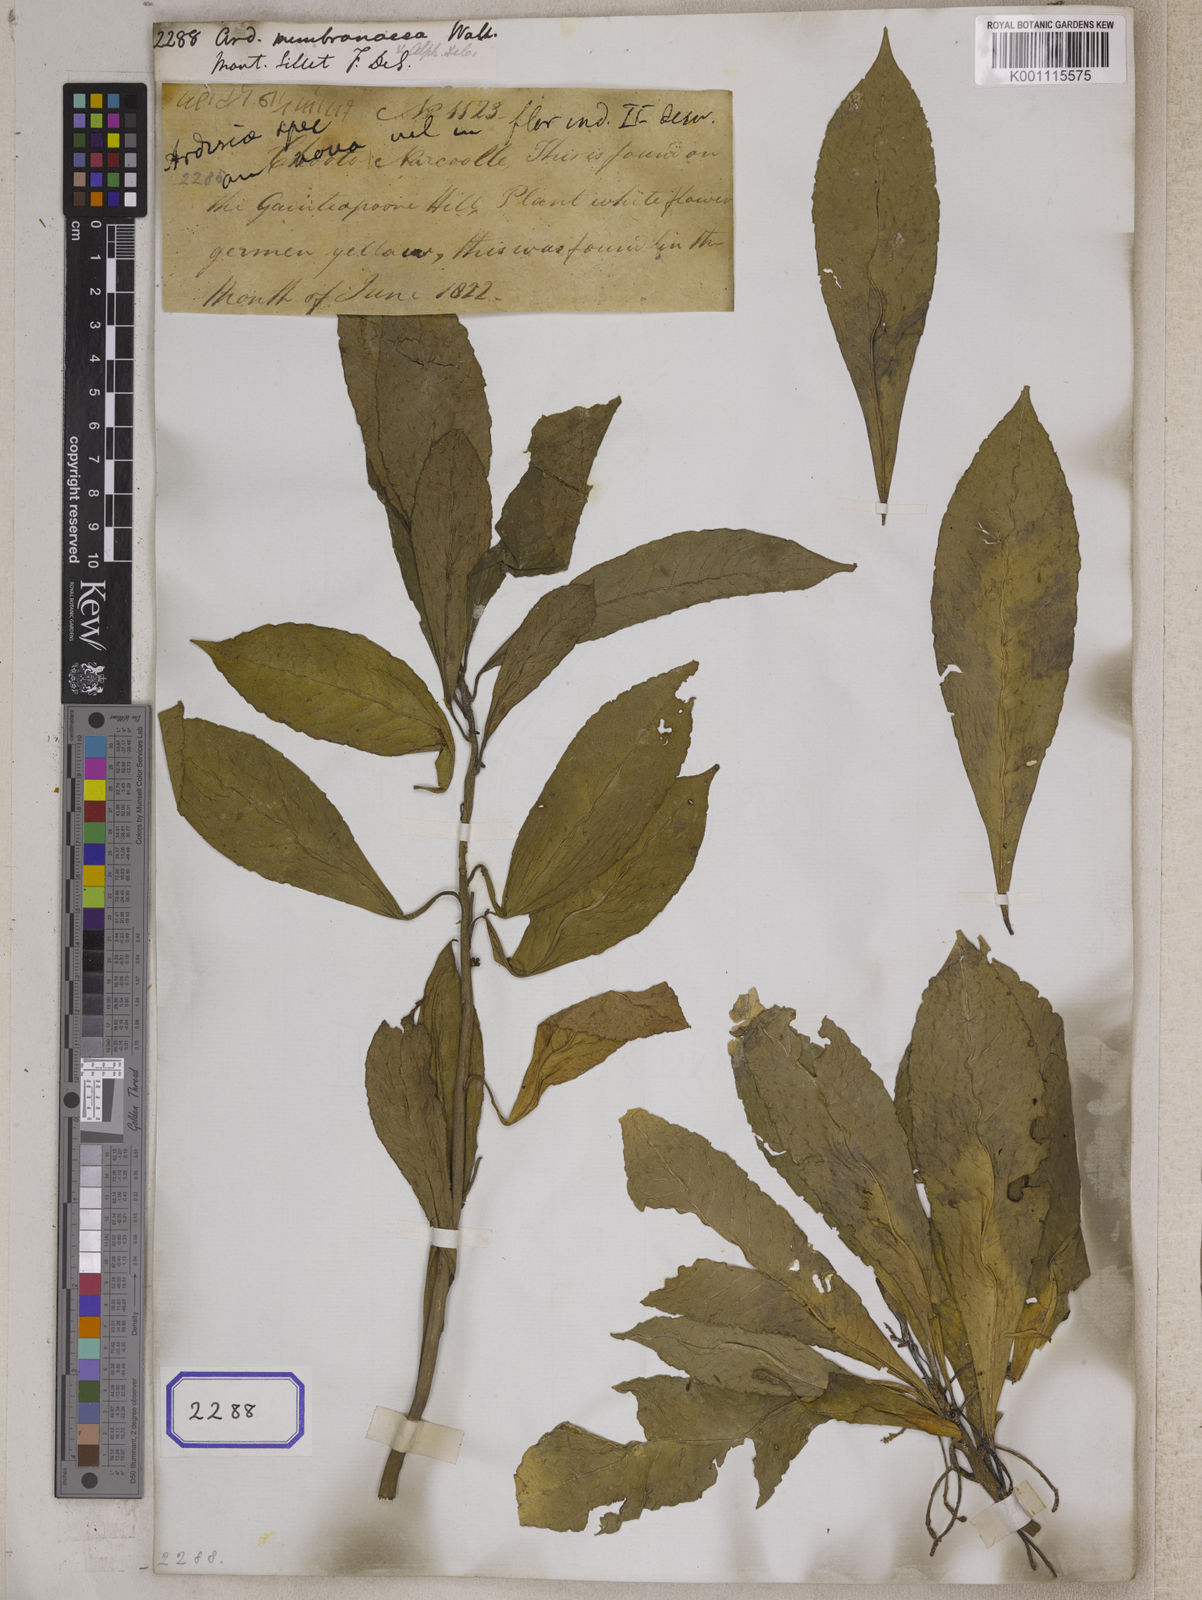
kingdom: Plantae
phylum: Tracheophyta
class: Magnoliopsida
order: Ericales
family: Primulaceae
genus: Ardisia
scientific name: Ardisia
